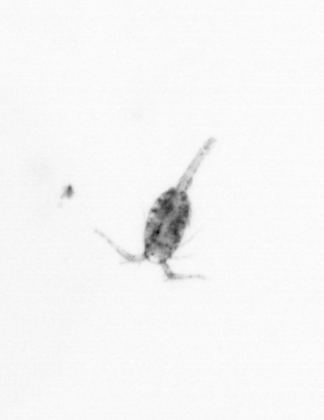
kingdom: Animalia
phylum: Arthropoda
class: Copepoda
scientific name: Copepoda
